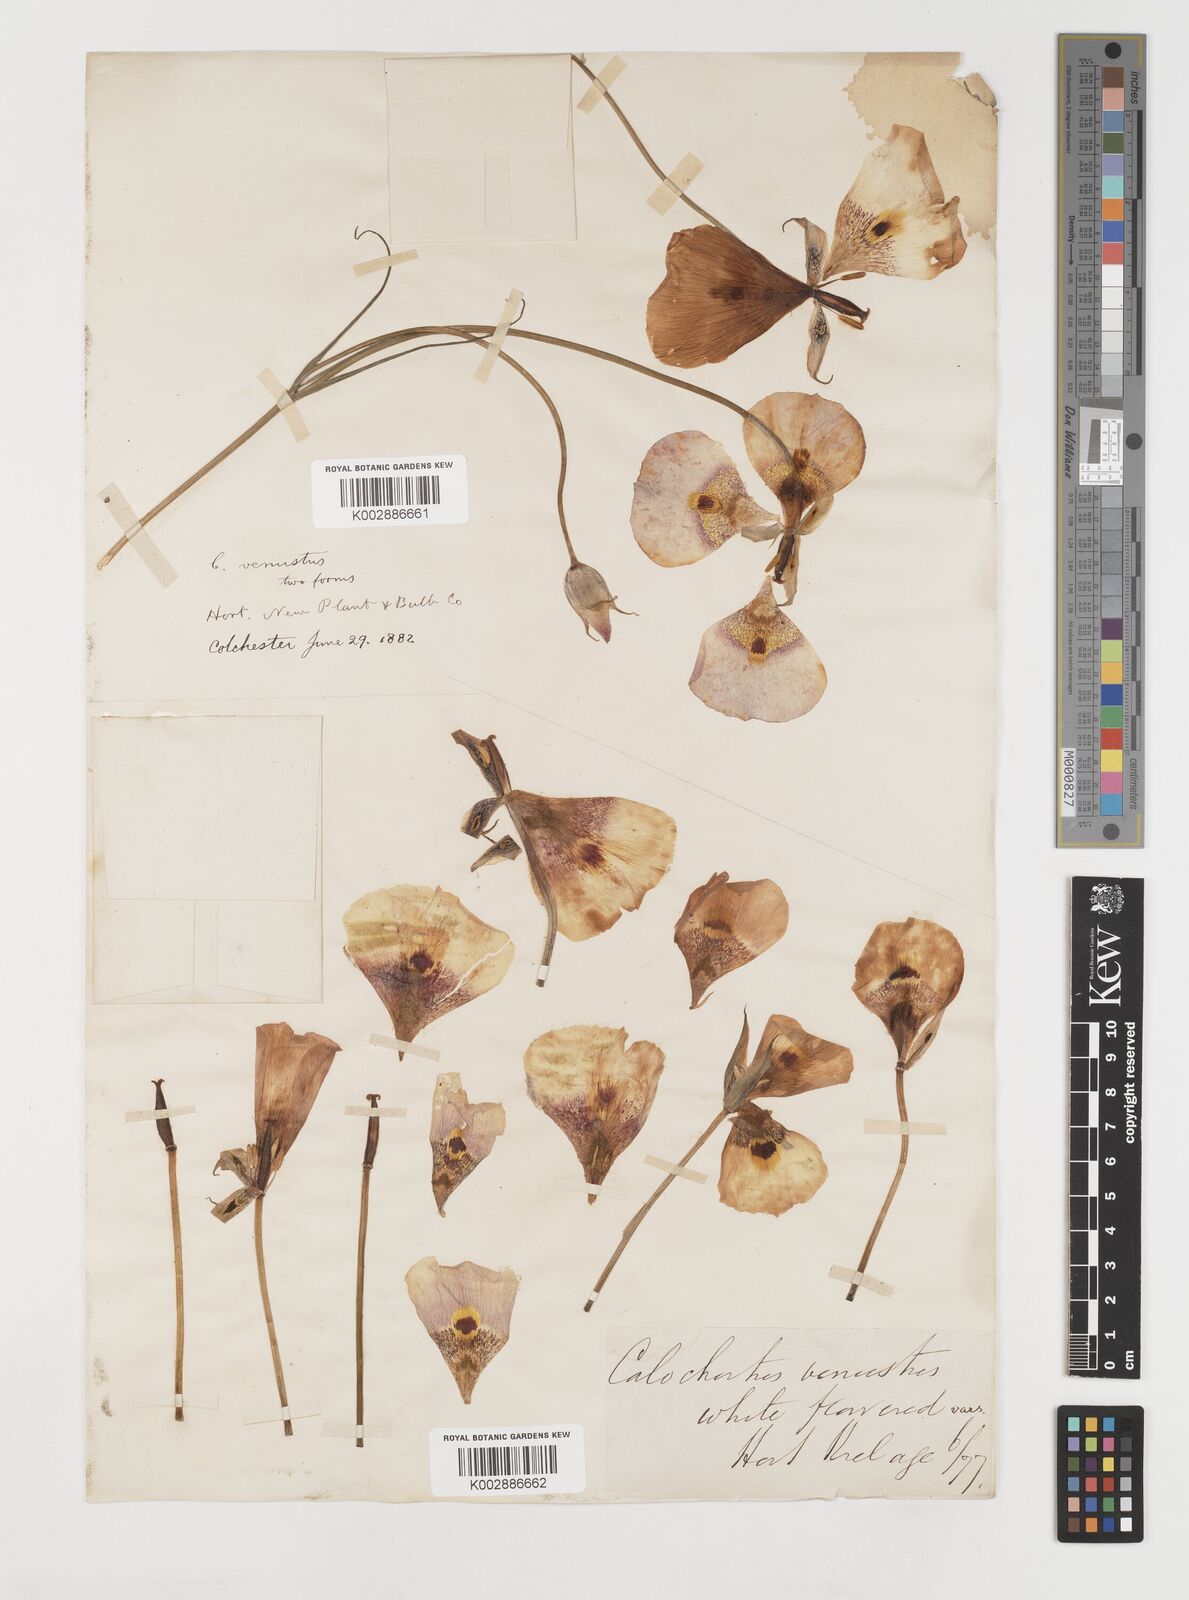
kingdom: Plantae
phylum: Tracheophyta
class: Liliopsida
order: Liliales
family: Liliaceae
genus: Calochortus
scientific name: Calochortus venustus
